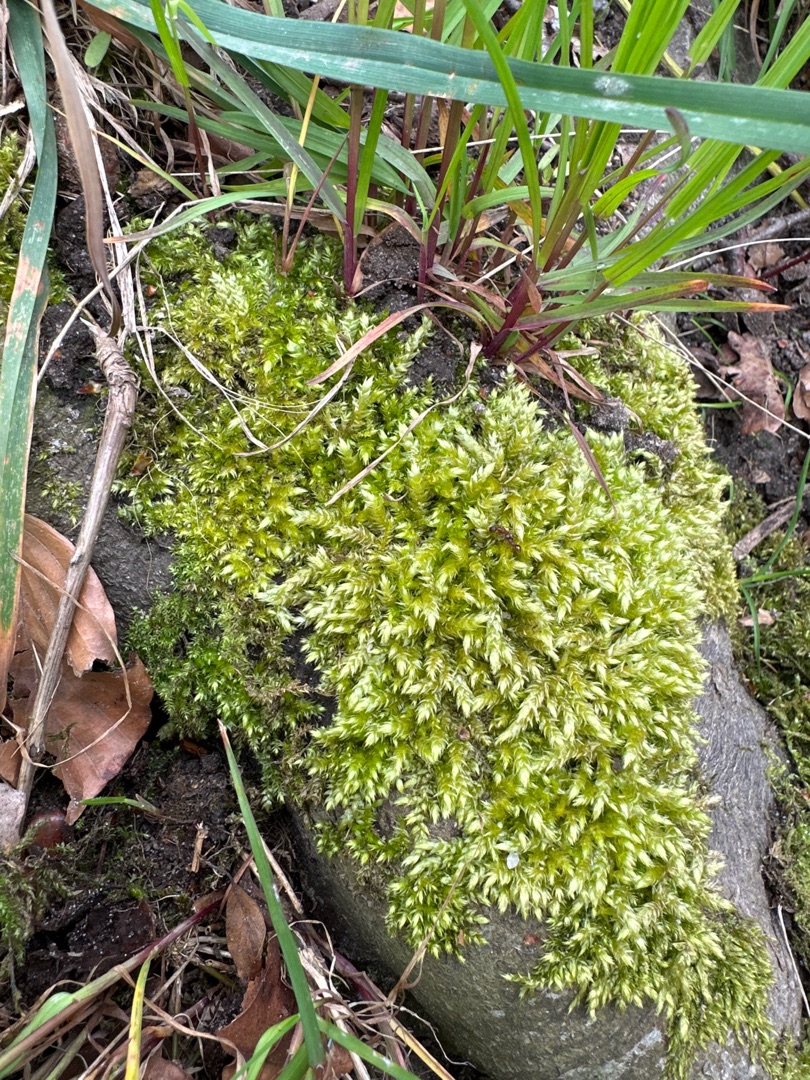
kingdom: Plantae
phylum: Bryophyta
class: Bryopsida
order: Hypnales
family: Brachytheciaceae
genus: Brachythecium
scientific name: Brachythecium rutabulum
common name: Almindelig kortkapsel
